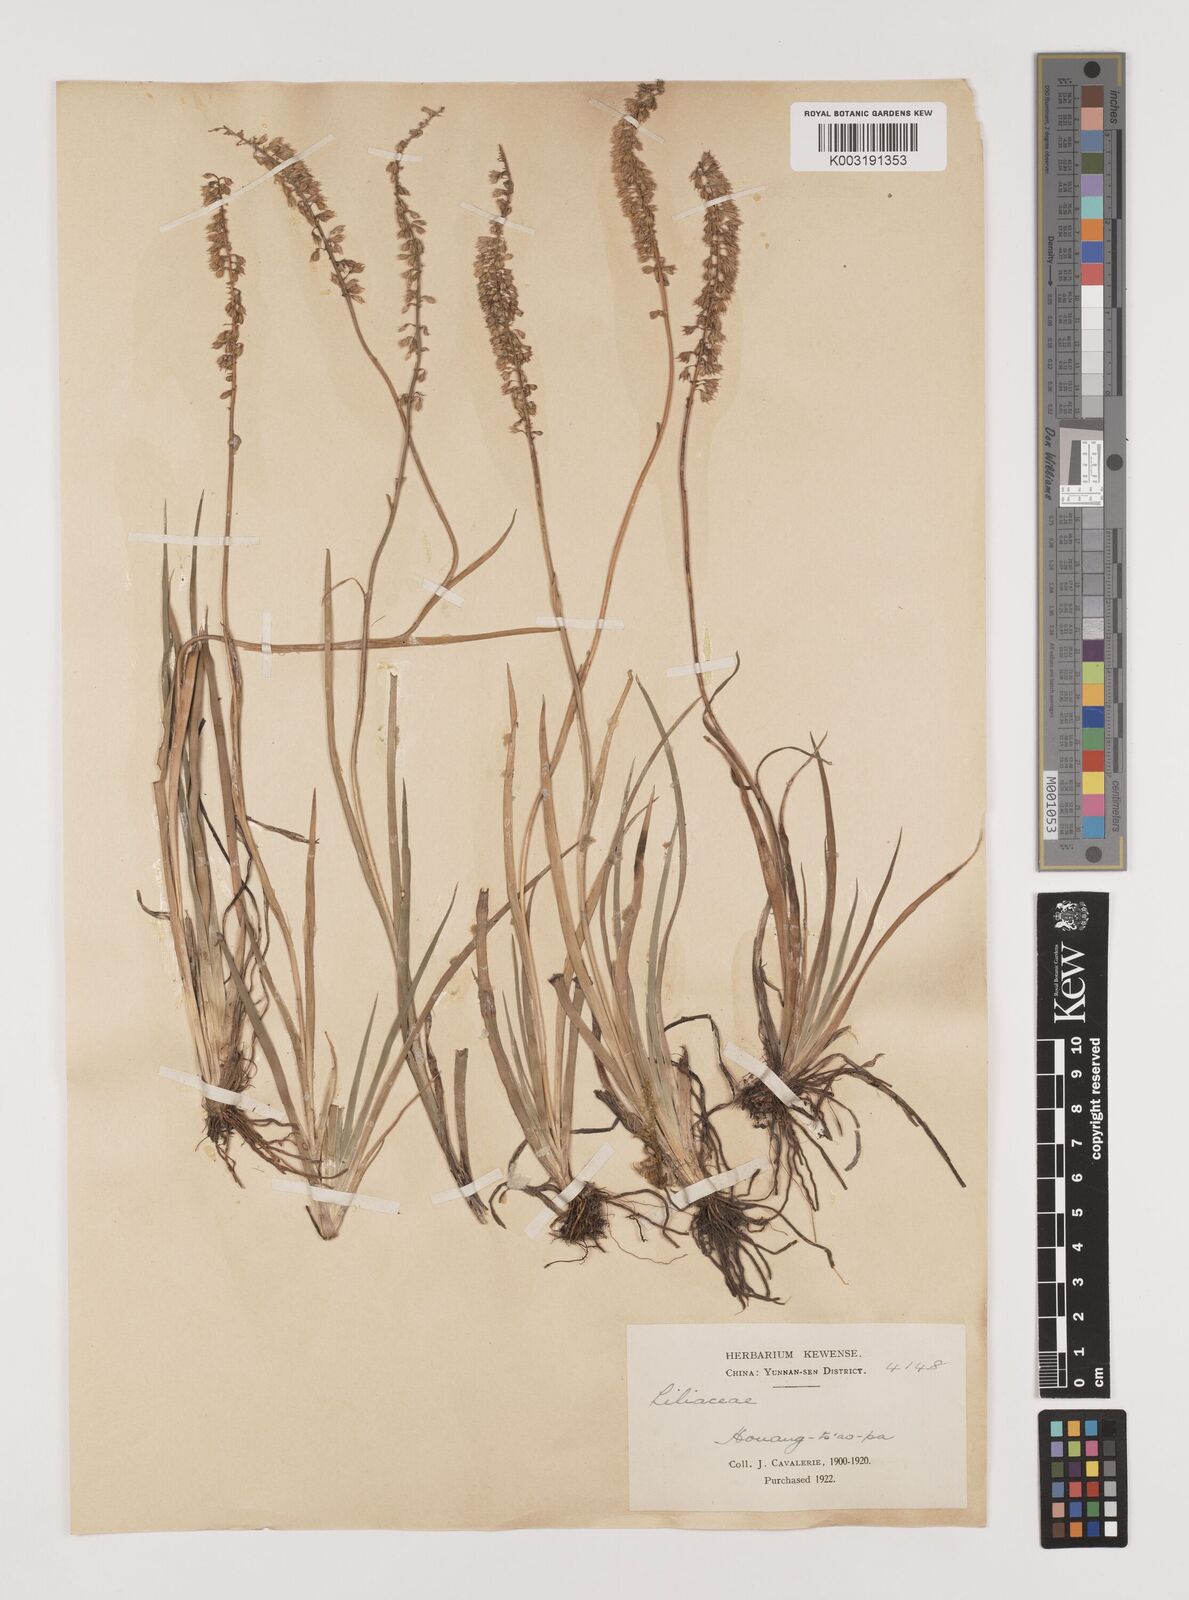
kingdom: Plantae
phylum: Tracheophyta
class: Liliopsida
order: Alismatales
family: Tofieldiaceae
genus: Tofieldia
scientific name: Tofieldia
